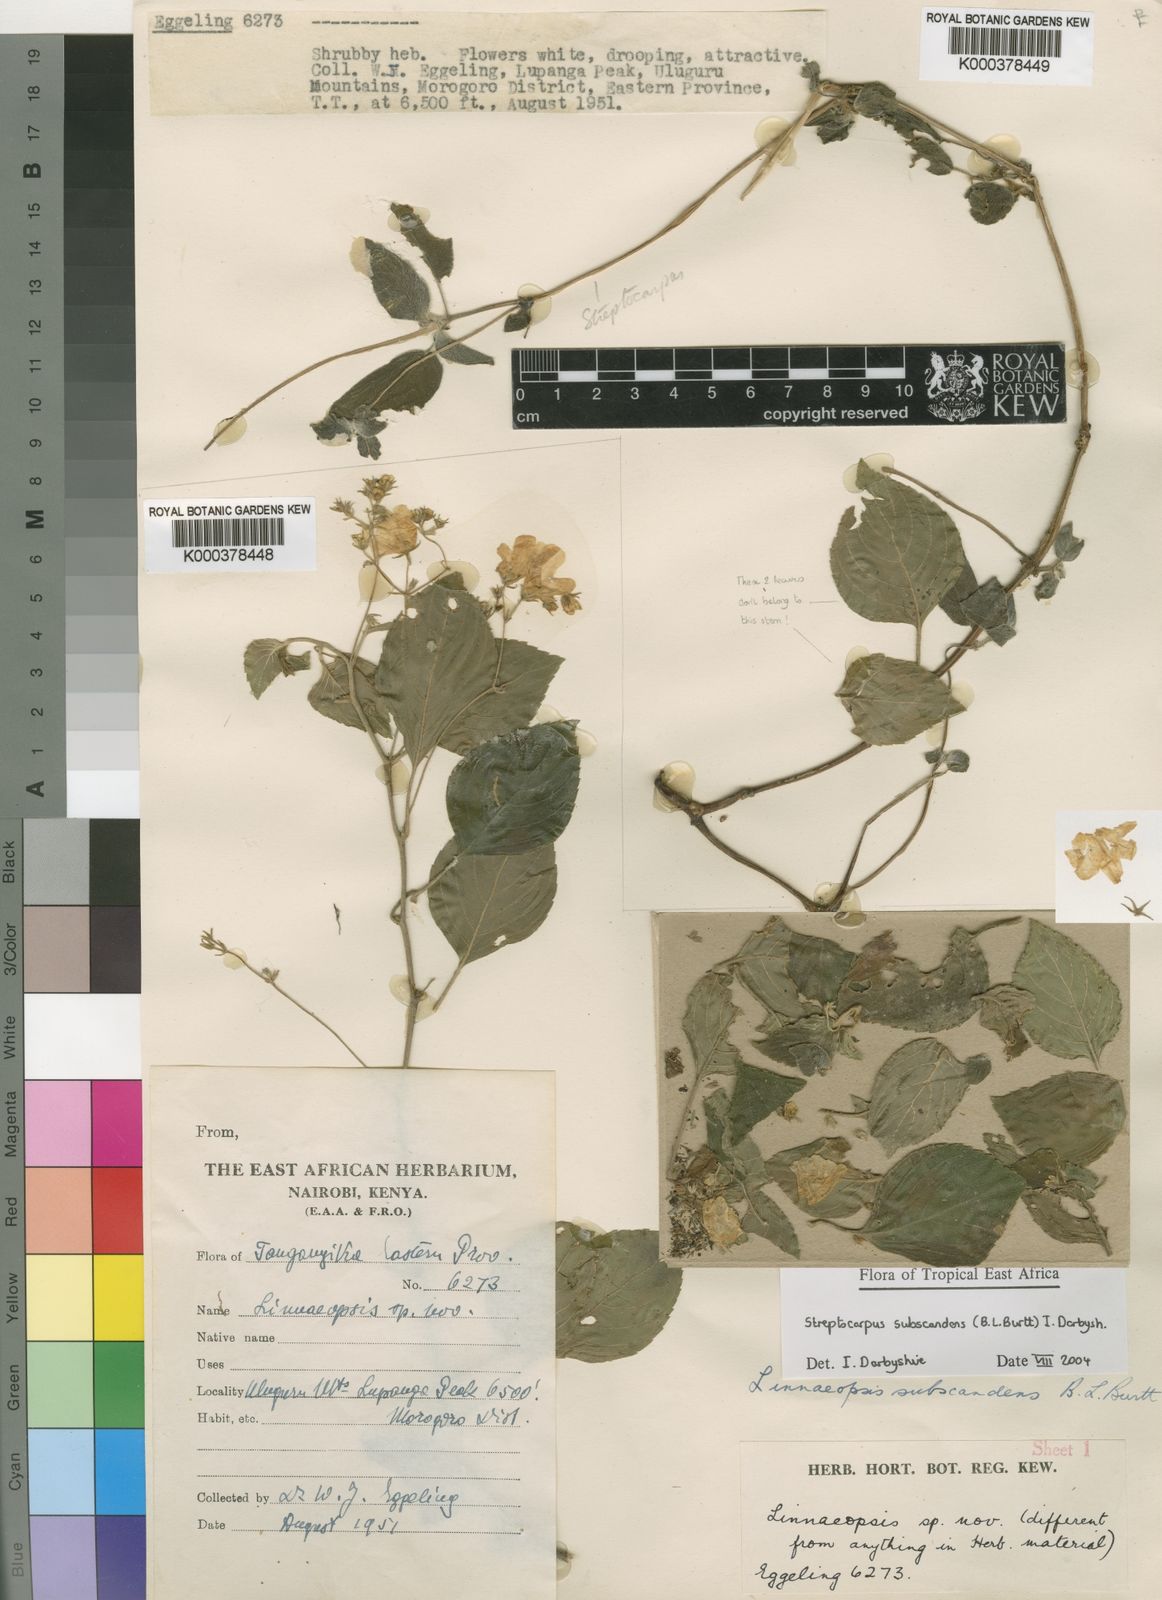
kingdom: Plantae
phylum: Tracheophyta
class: Magnoliopsida
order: Lamiales
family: Gesneriaceae
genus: Streptocarpus
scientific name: Streptocarpus
